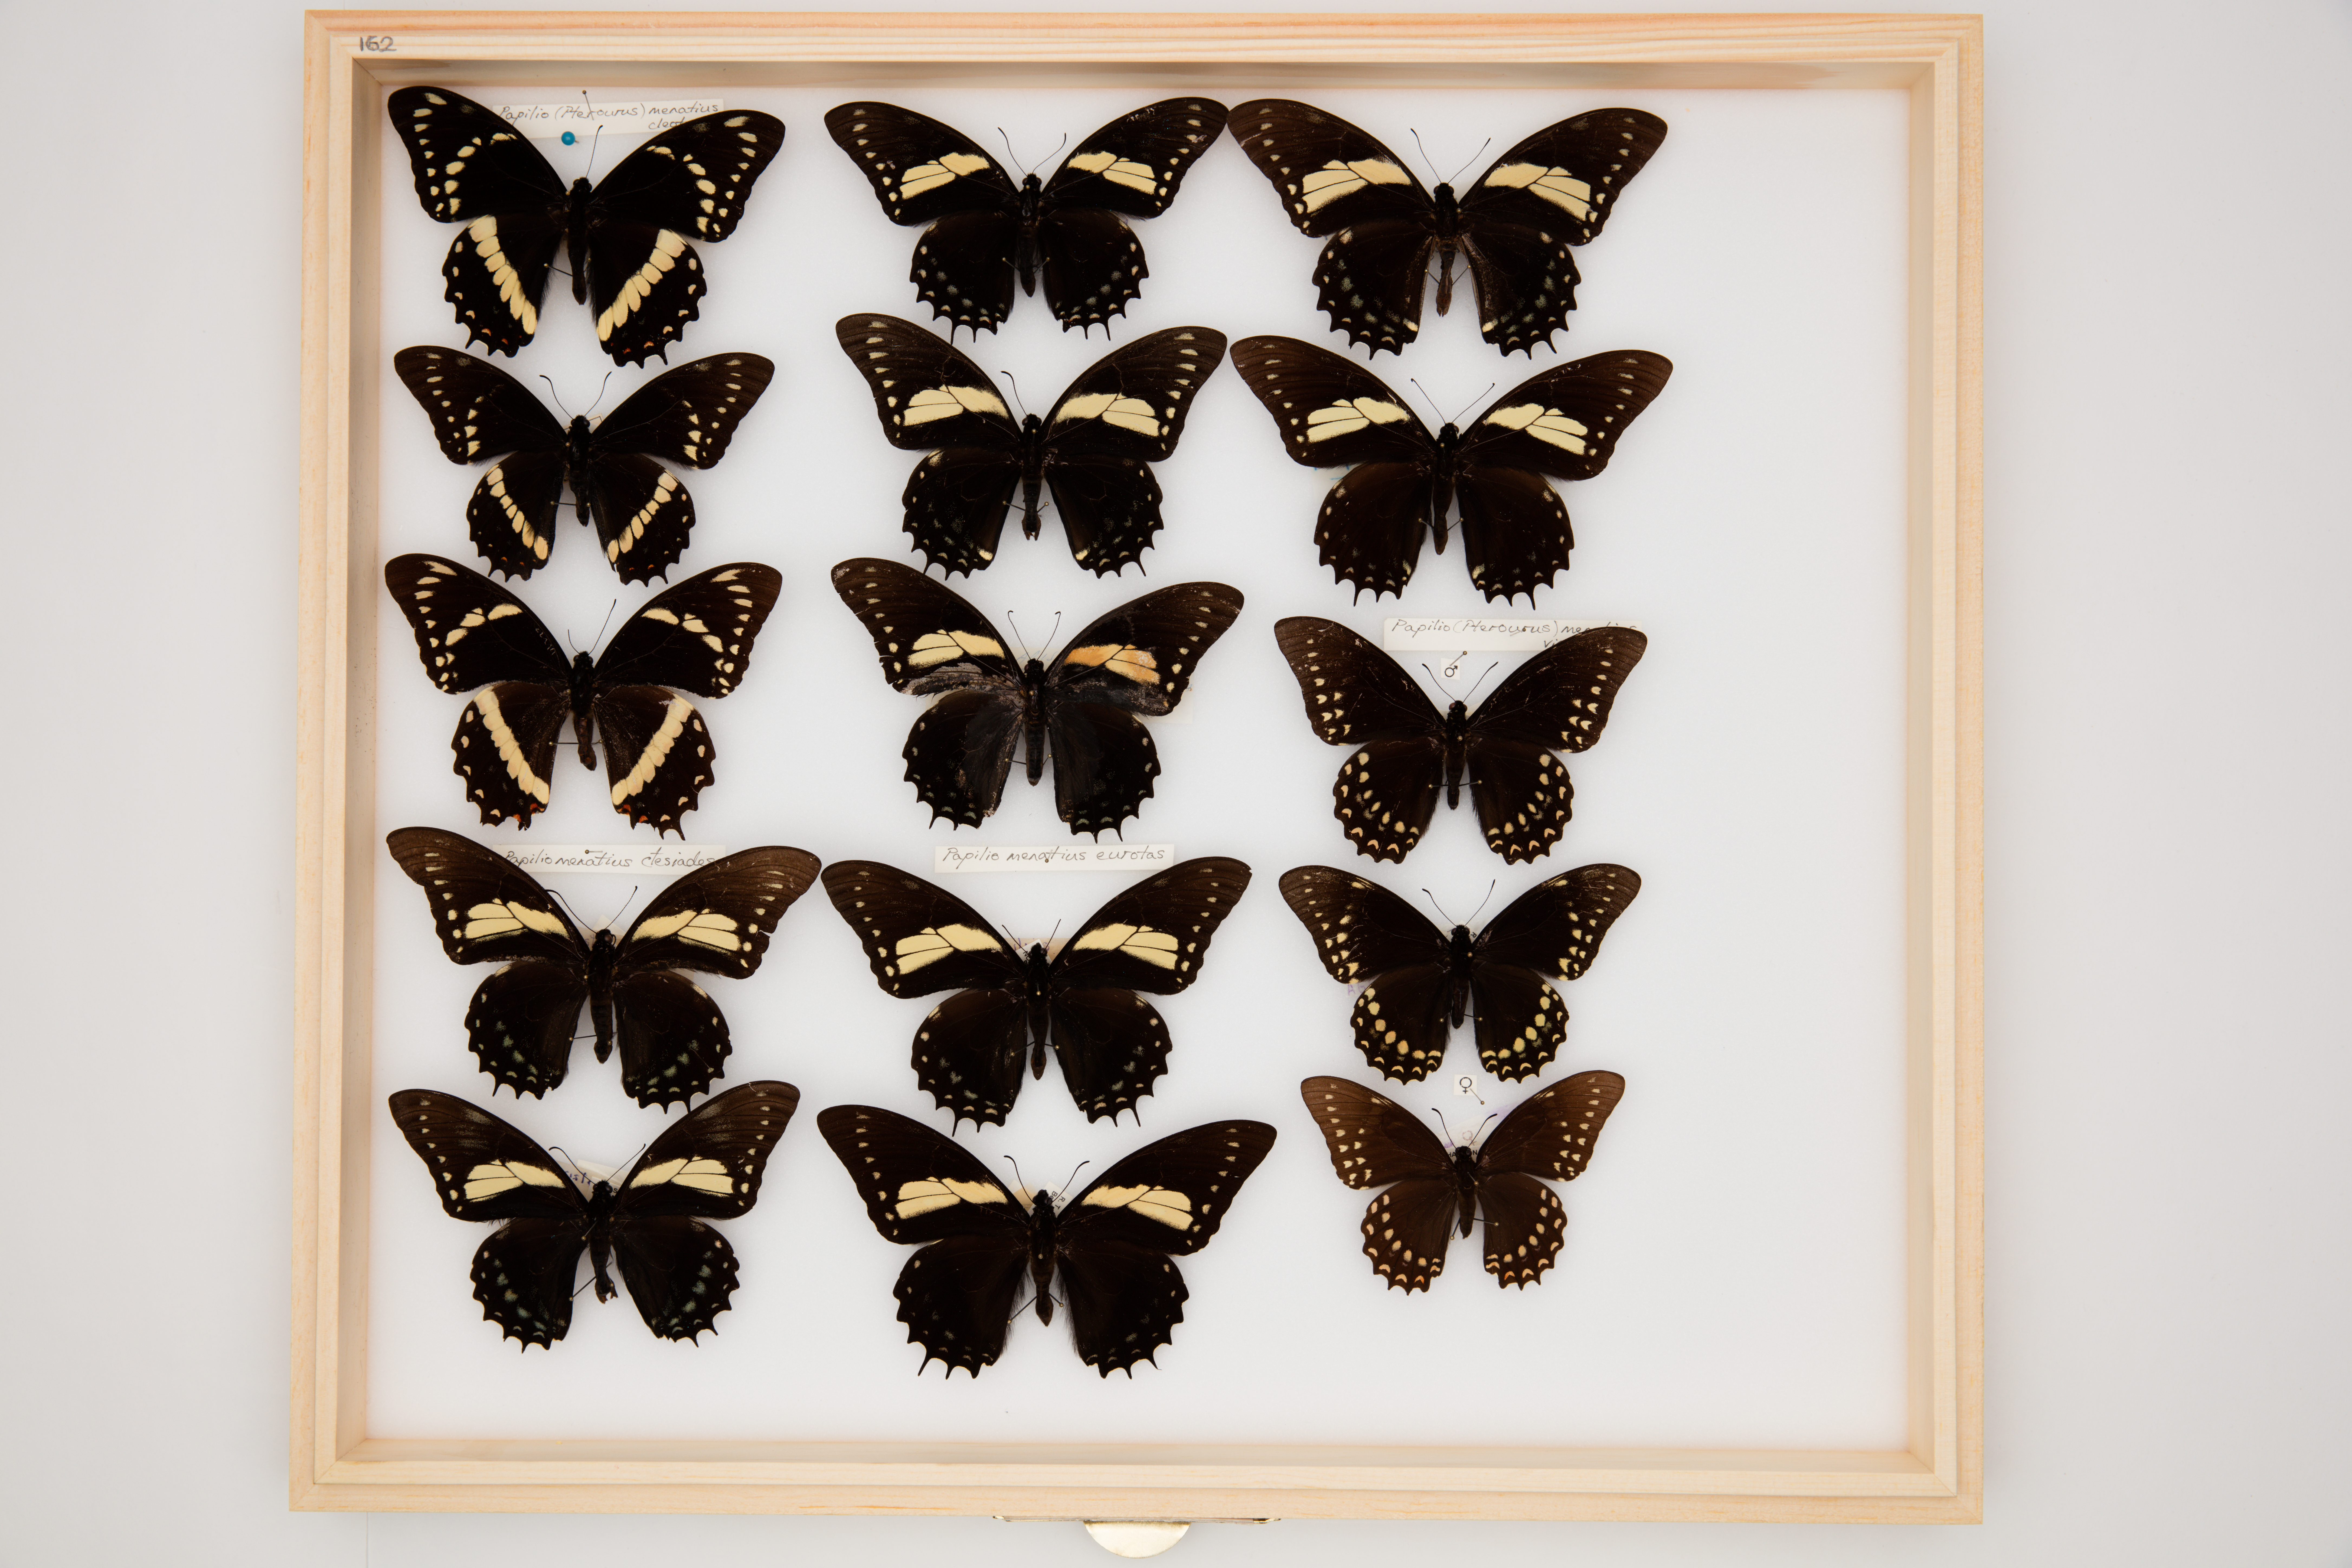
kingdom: Animalia
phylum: Arthropoda
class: Insecta
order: Lepidoptera
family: Papilionidae
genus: Papilio
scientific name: Papilio menatius
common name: Victorine swallowtail
